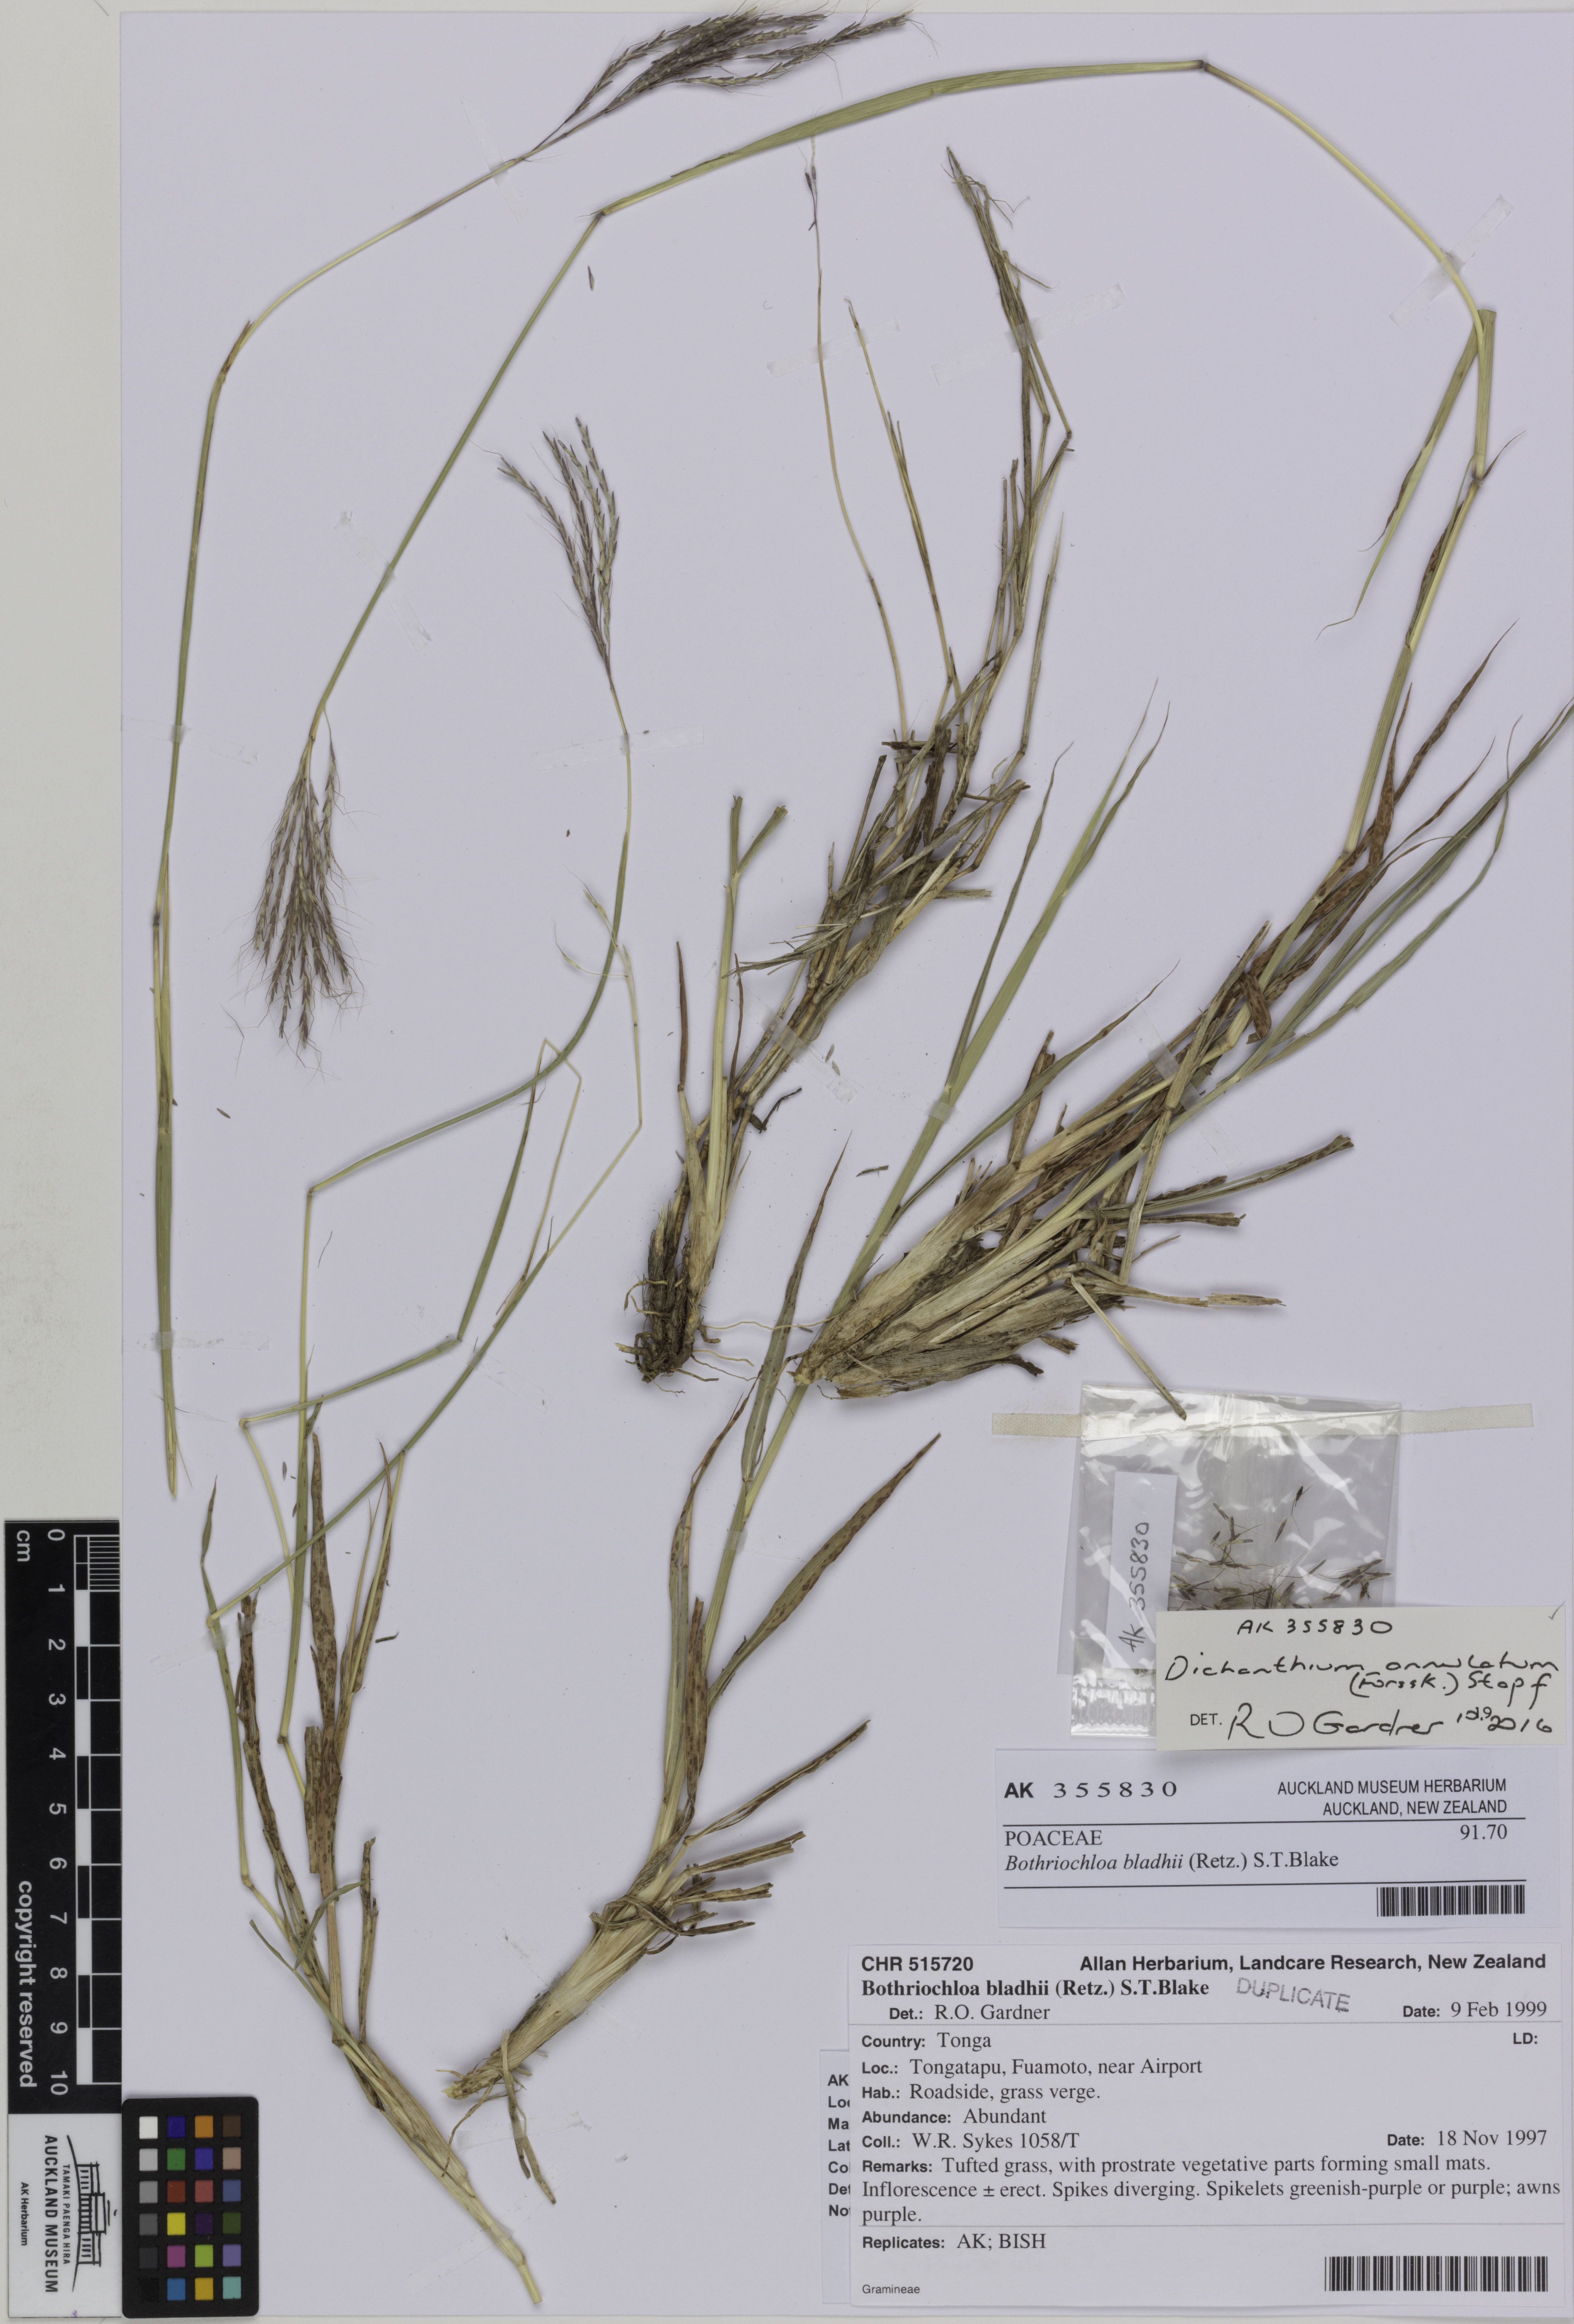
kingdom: Plantae
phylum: Tracheophyta
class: Liliopsida
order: Poales
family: Poaceae
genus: Dichanthium
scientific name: Dichanthium annulatum
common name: Kleberg's bluestem
